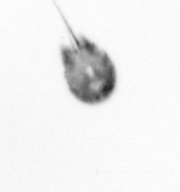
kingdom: Animalia
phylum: Arthropoda
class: Copepoda
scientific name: Copepoda
